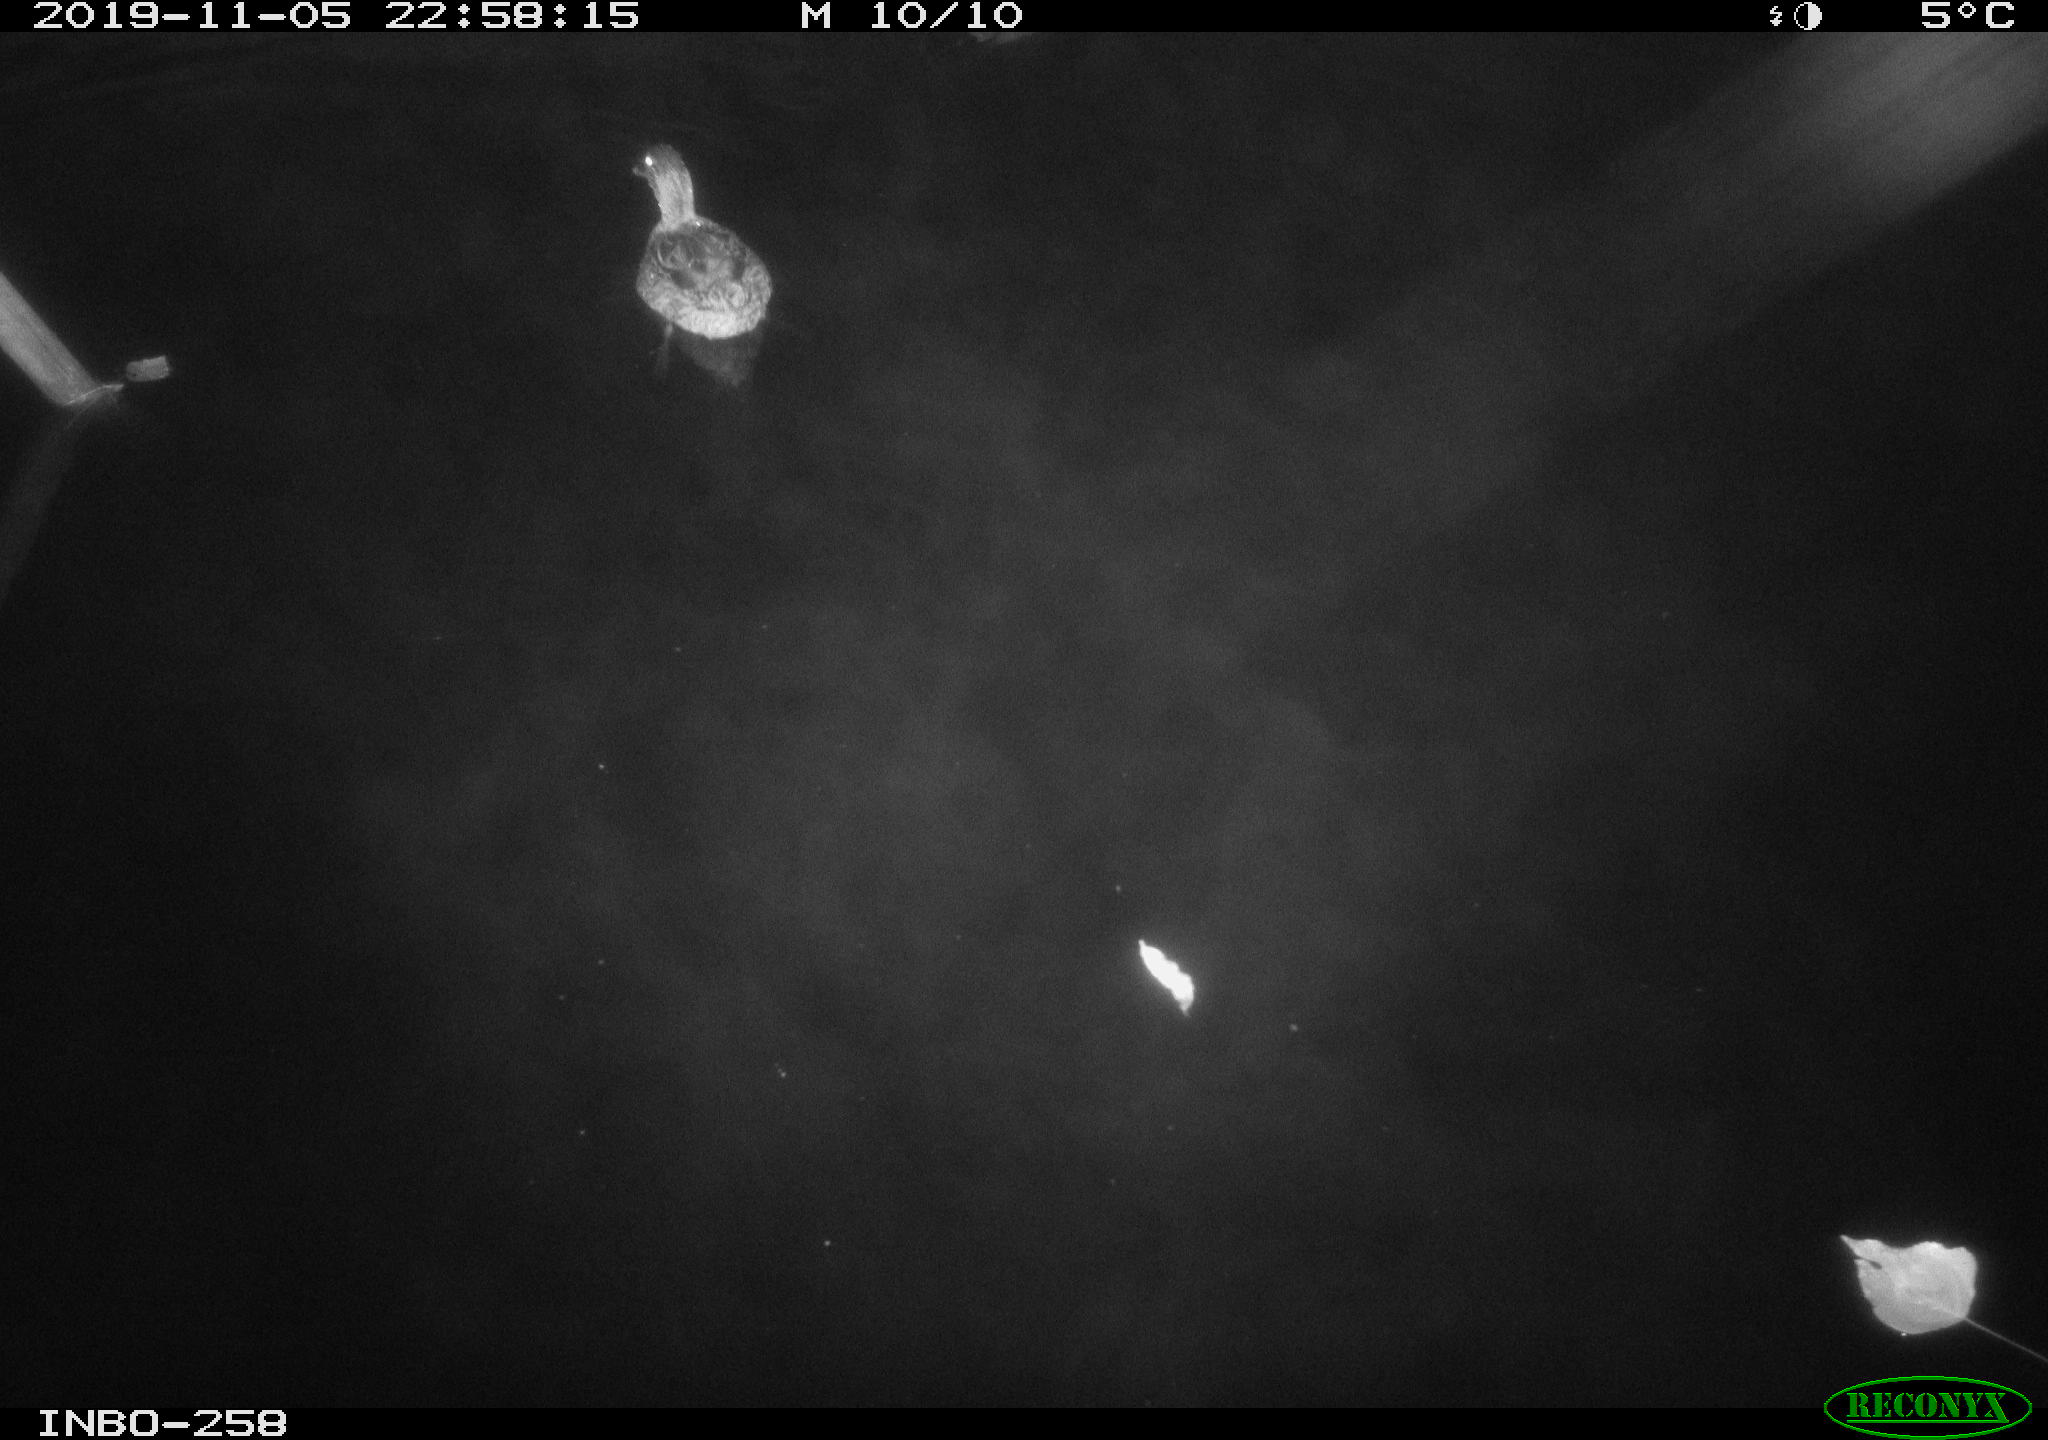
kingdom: Animalia
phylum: Chordata
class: Aves
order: Anseriformes
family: Anatidae
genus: Anas
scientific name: Anas platyrhynchos
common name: Mallard
